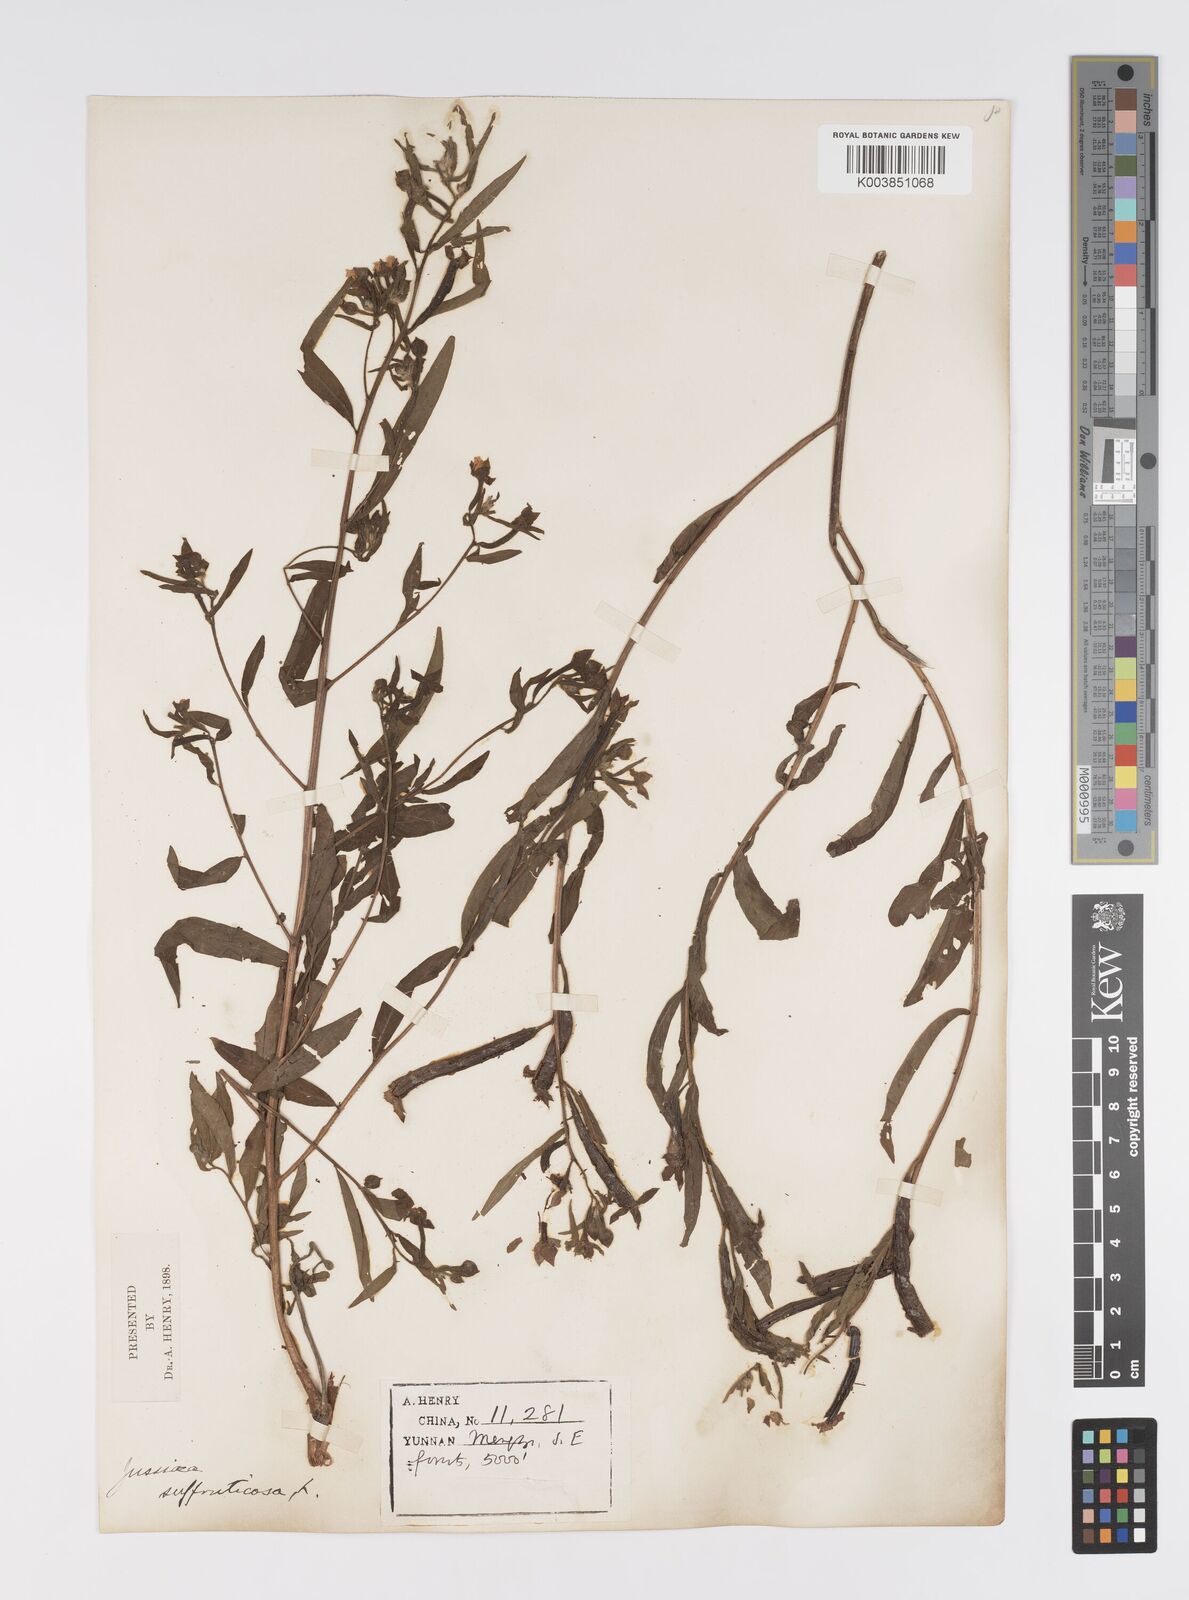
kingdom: Plantae
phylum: Tracheophyta
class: Magnoliopsida
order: Myrtales
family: Onagraceae
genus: Ludwigia
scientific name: Ludwigia octovalvis
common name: Water-primrose
